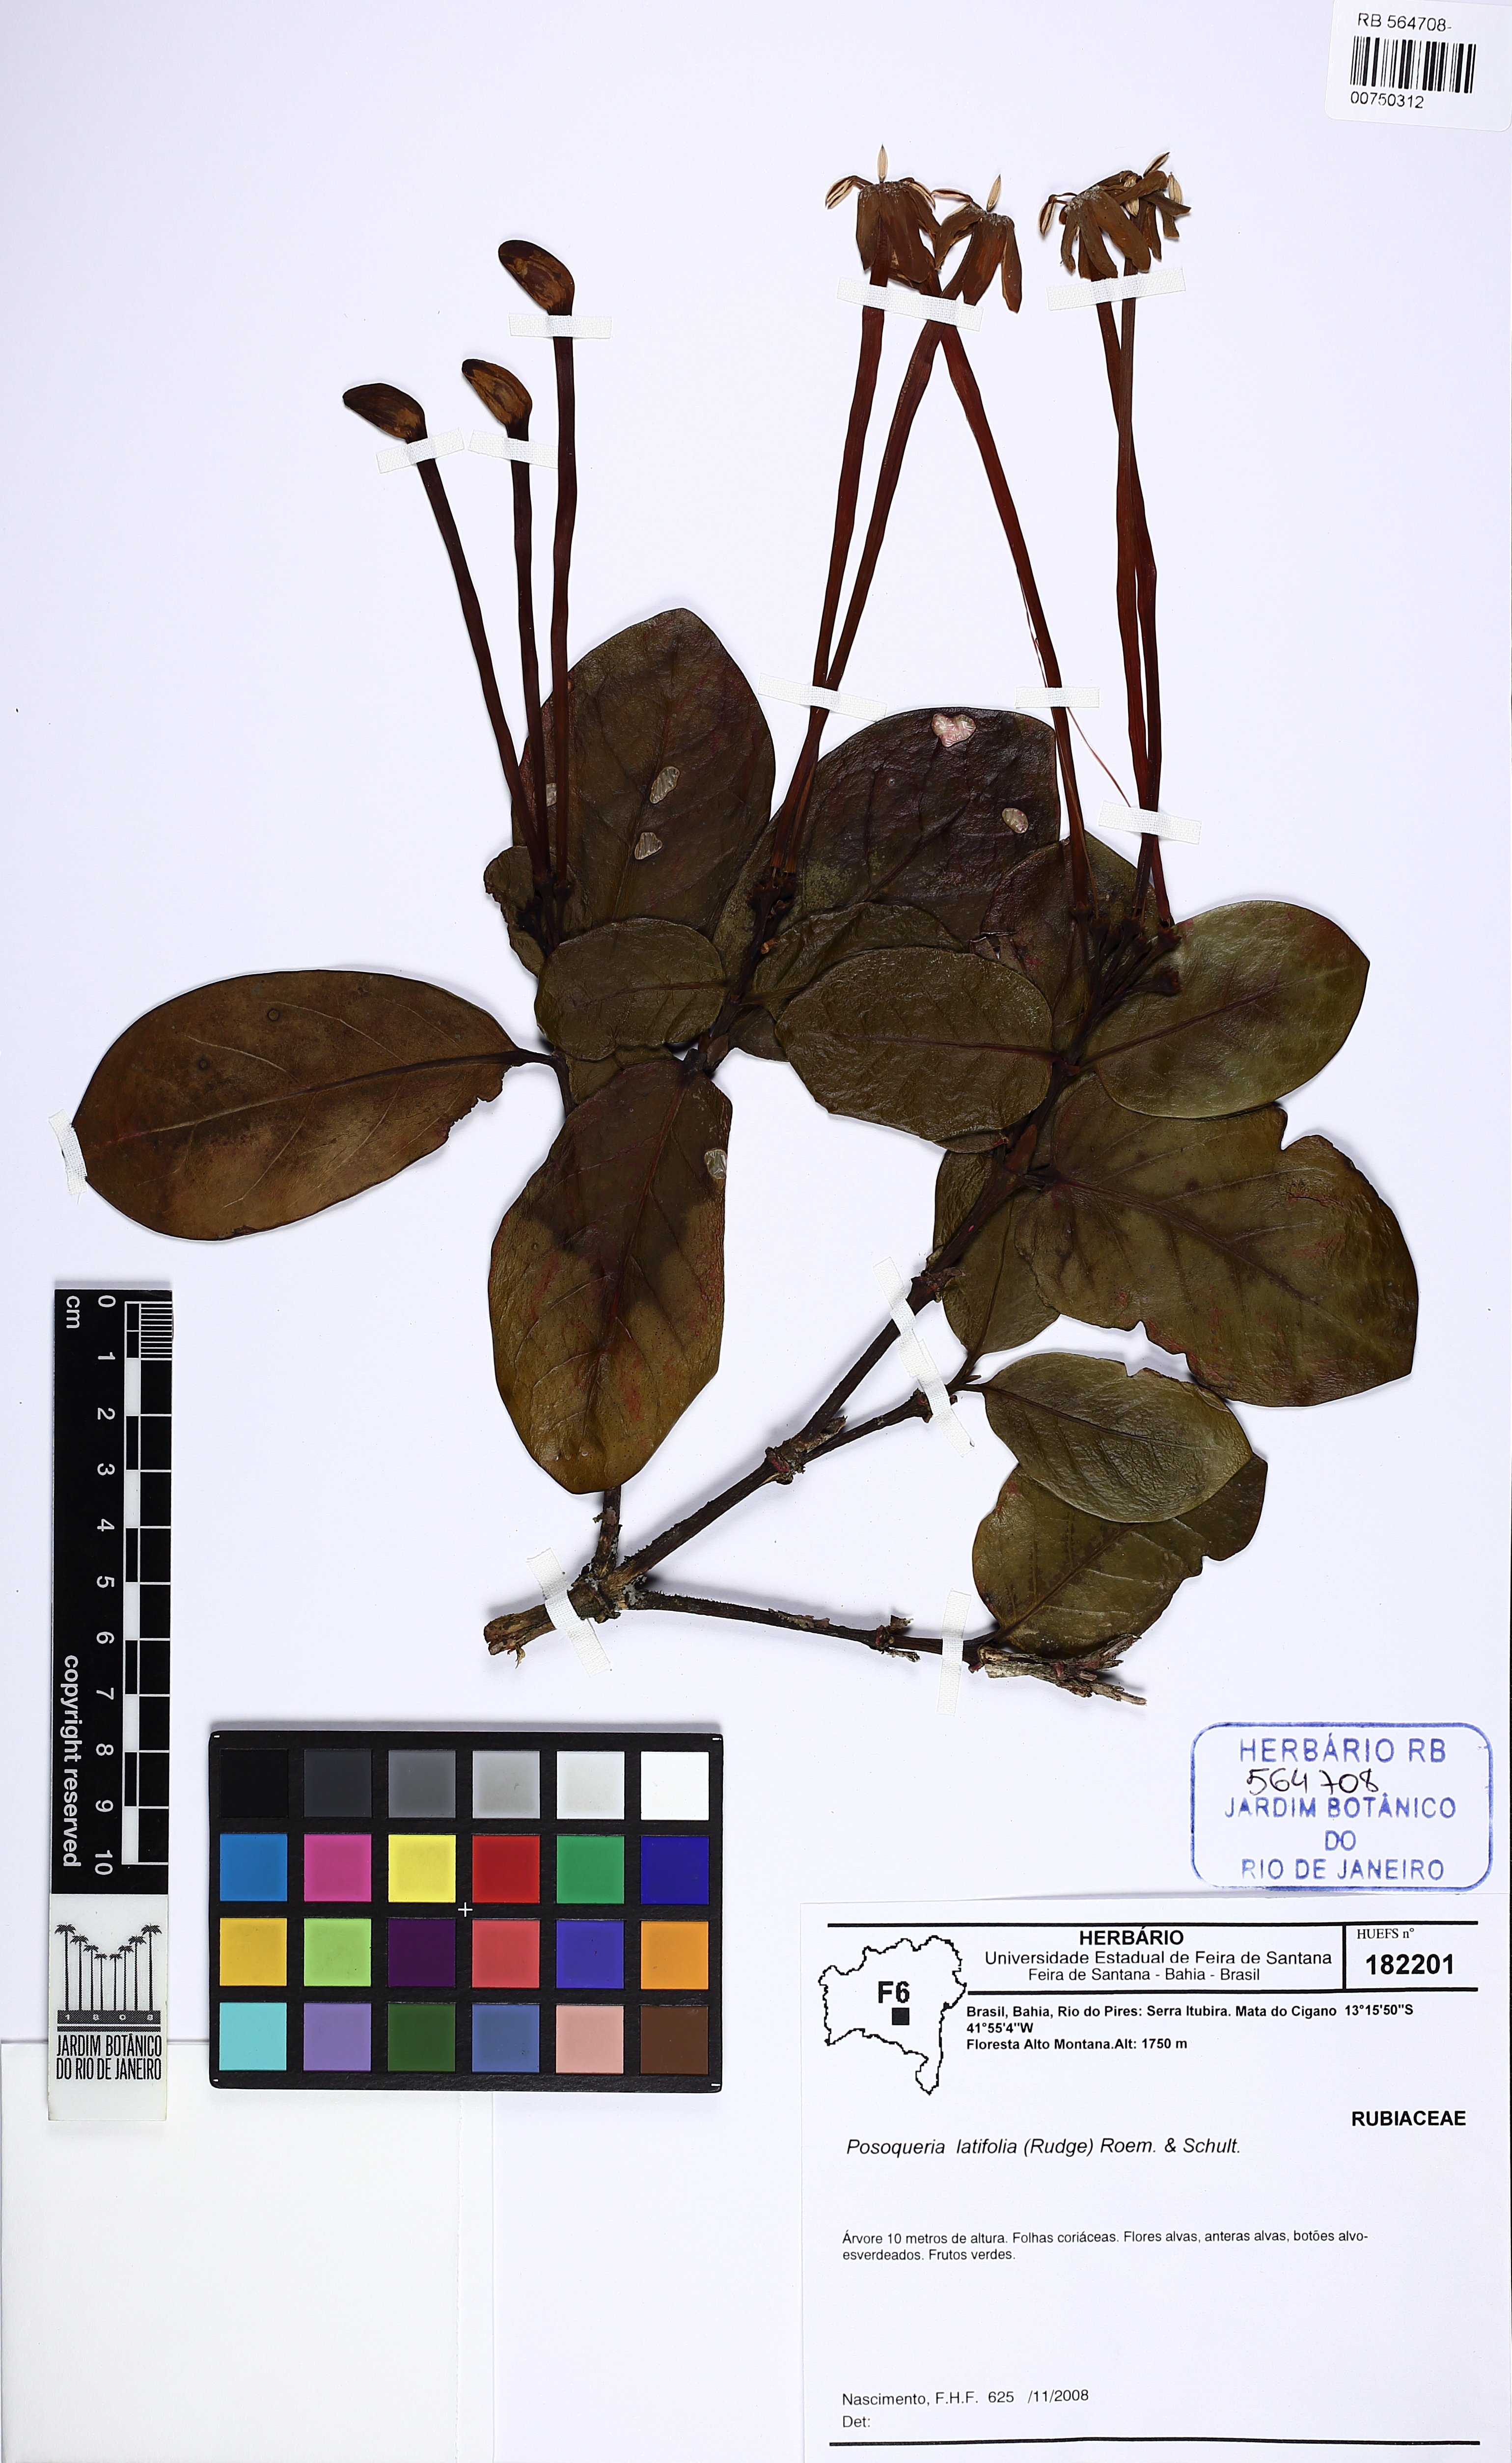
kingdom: Plantae
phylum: Tracheophyta
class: Magnoliopsida
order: Gentianales
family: Rubiaceae
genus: Posoqueria
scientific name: Posoqueria latifolia
